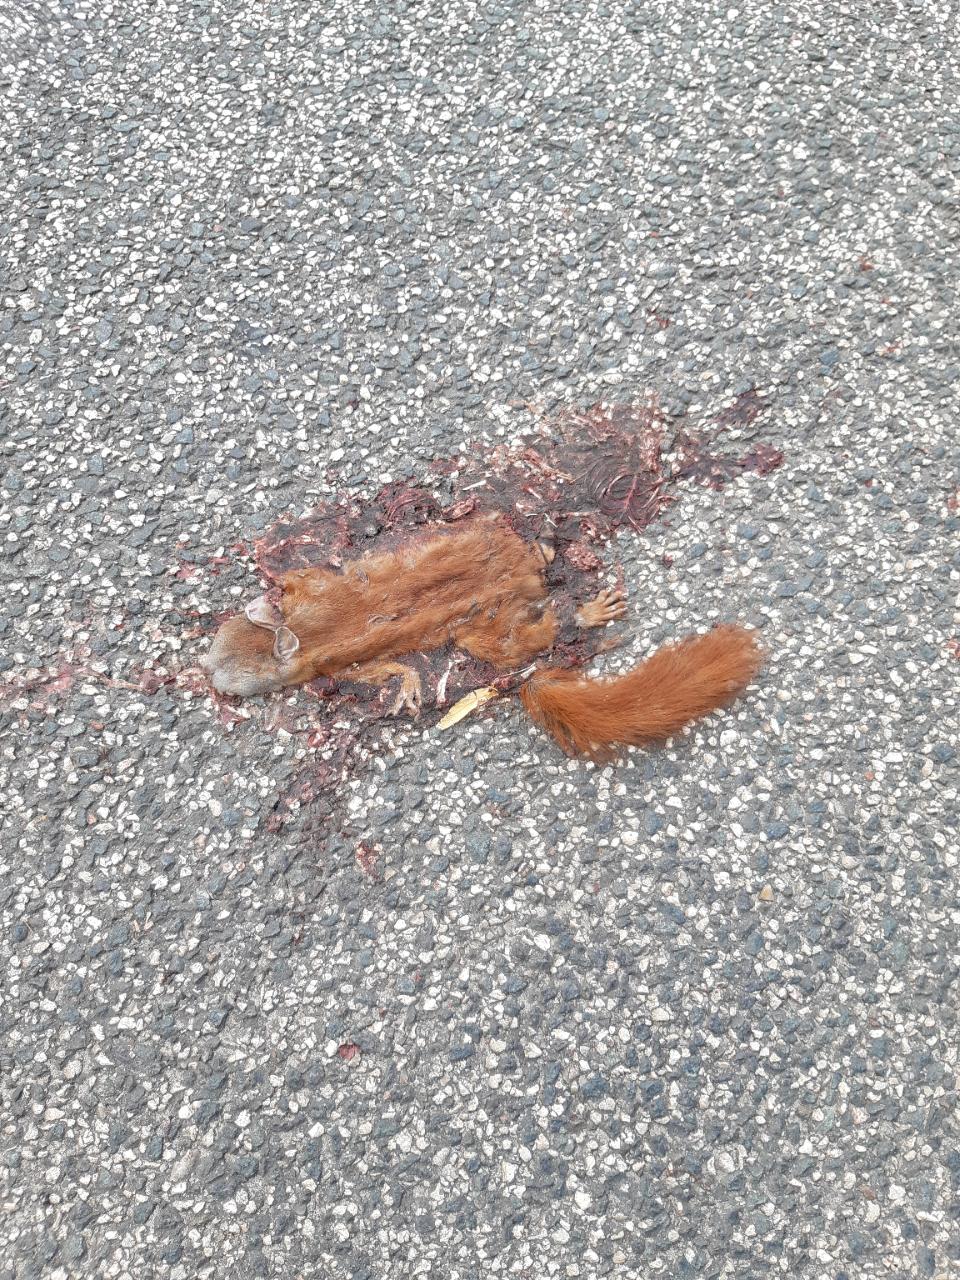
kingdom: Animalia
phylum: Chordata
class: Mammalia
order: Rodentia
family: Sciuridae
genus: Sciurus
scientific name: Sciurus vulgaris
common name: Eurasian red squirrel
